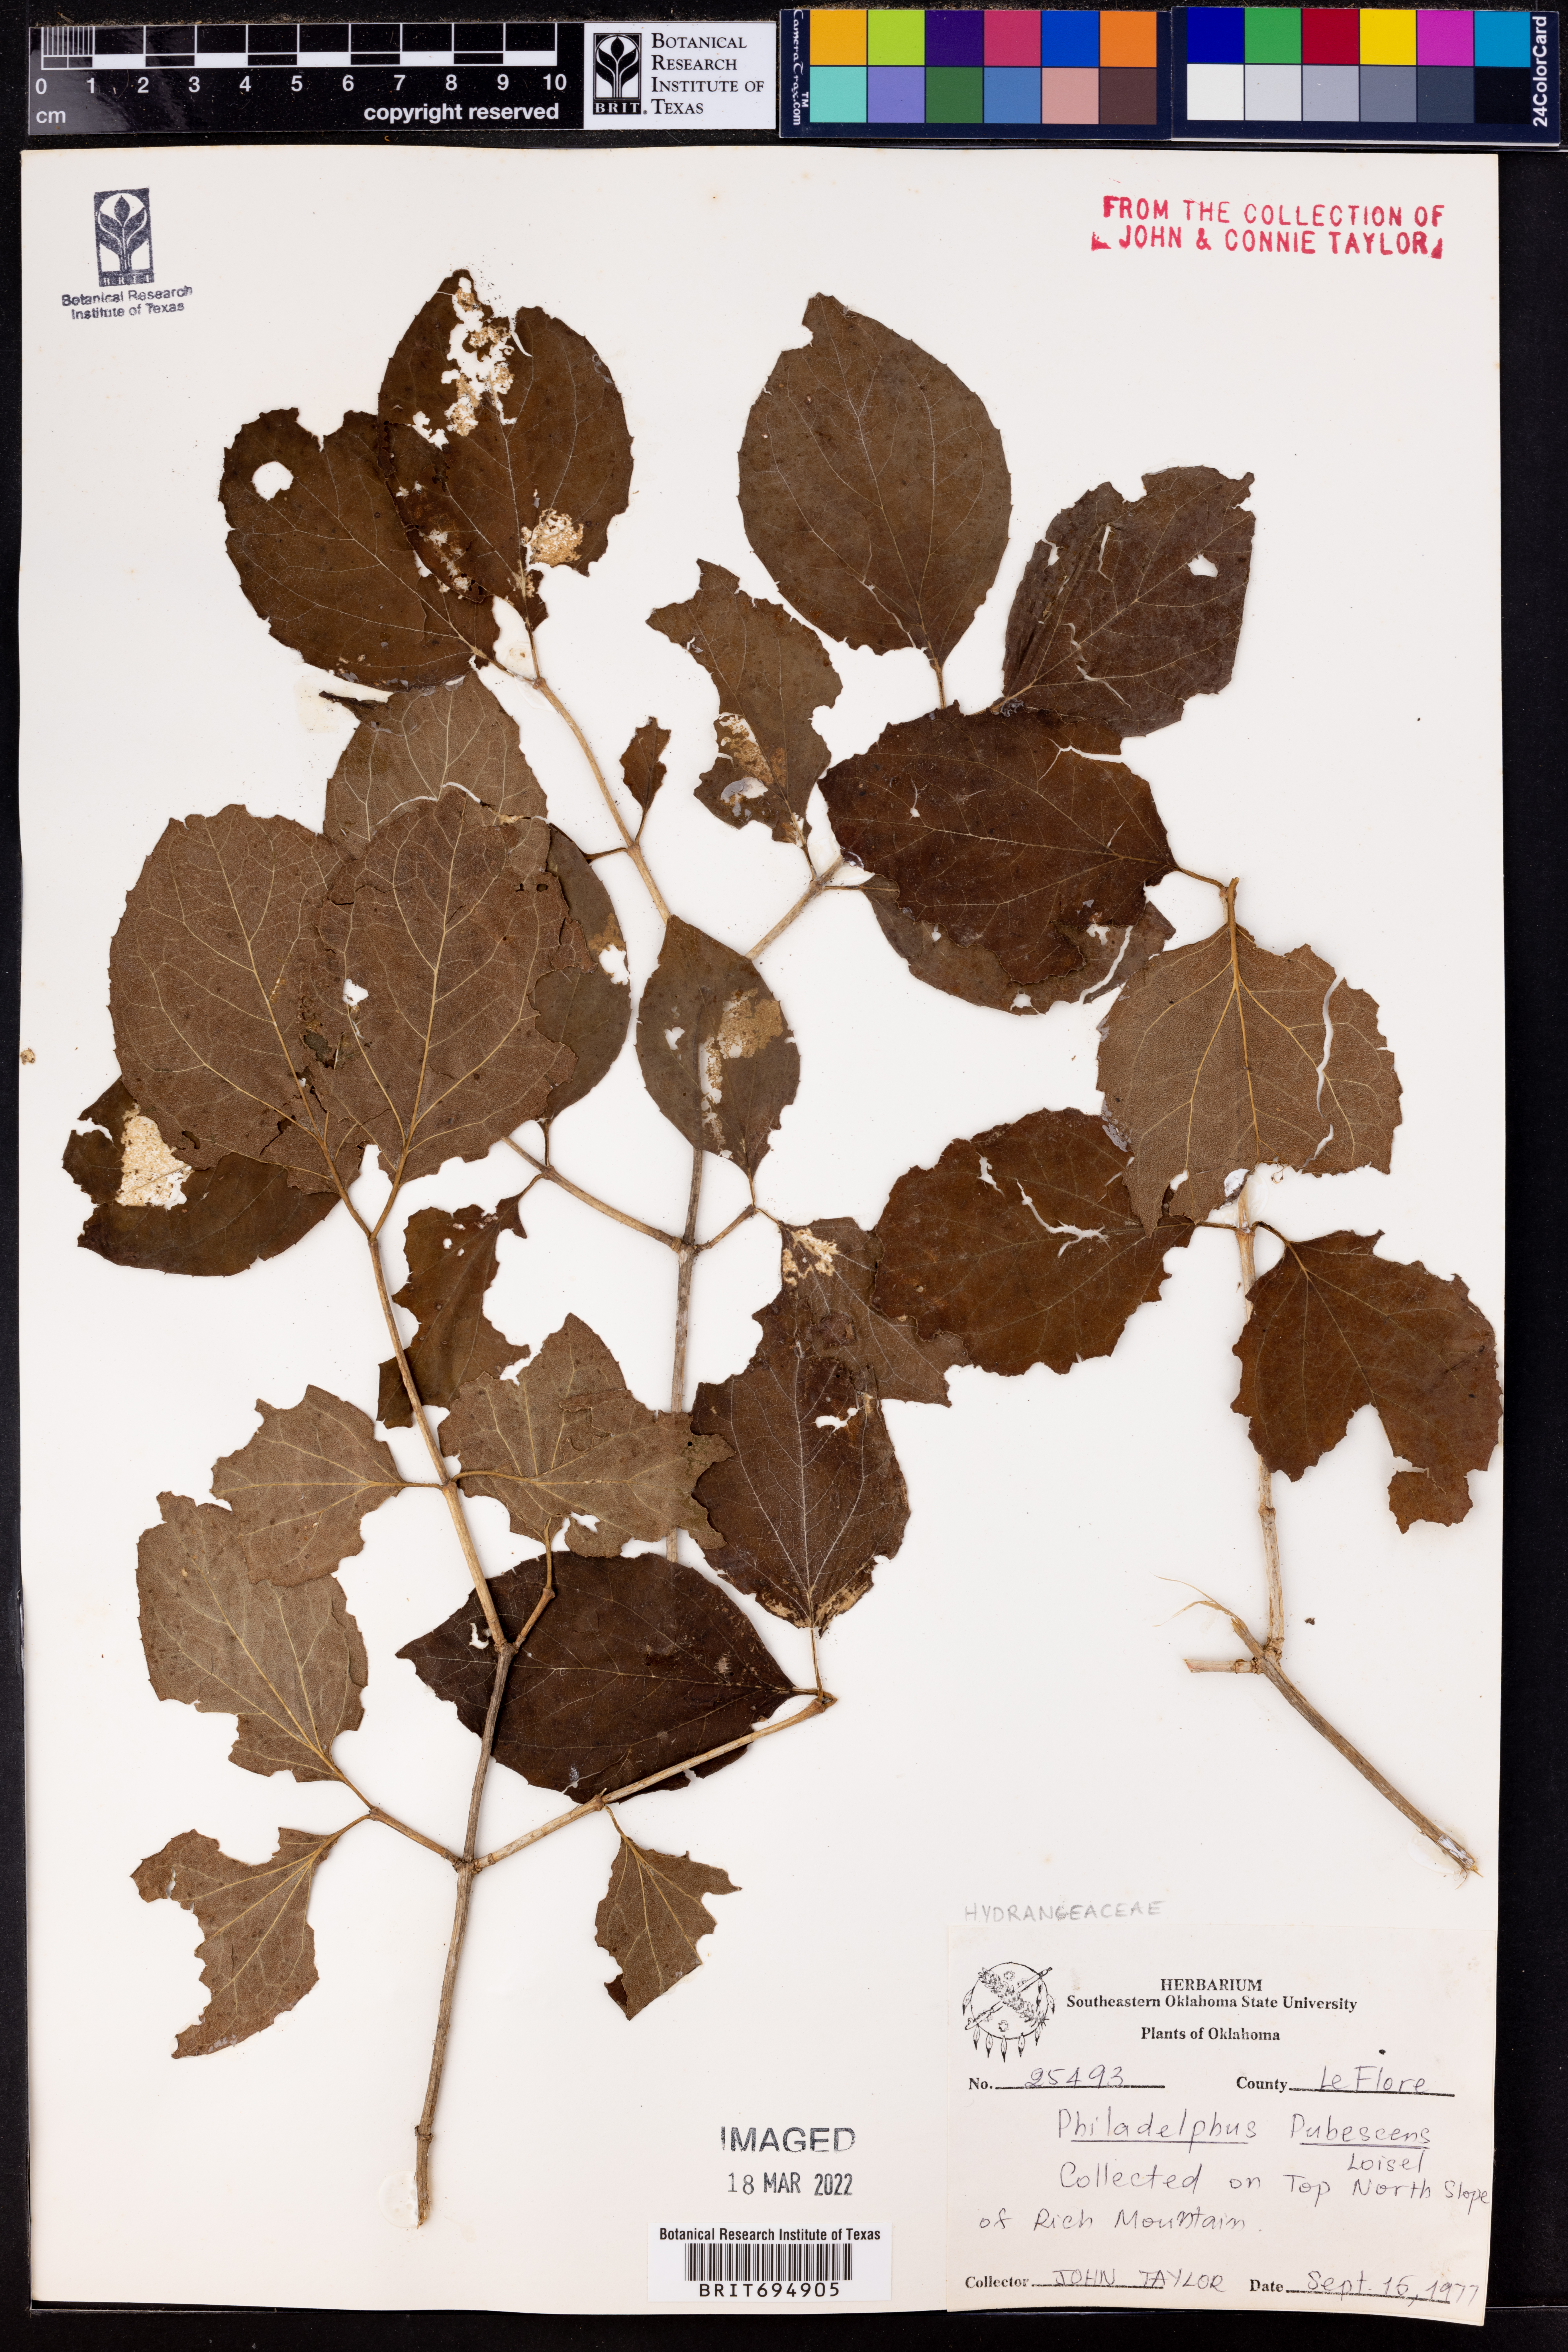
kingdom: Plantae
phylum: Tracheophyta
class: Magnoliopsida
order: Cornales
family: Hydrangeaceae
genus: Philadelphus
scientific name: Philadelphus pubescens
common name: Broadleaf mock orange
